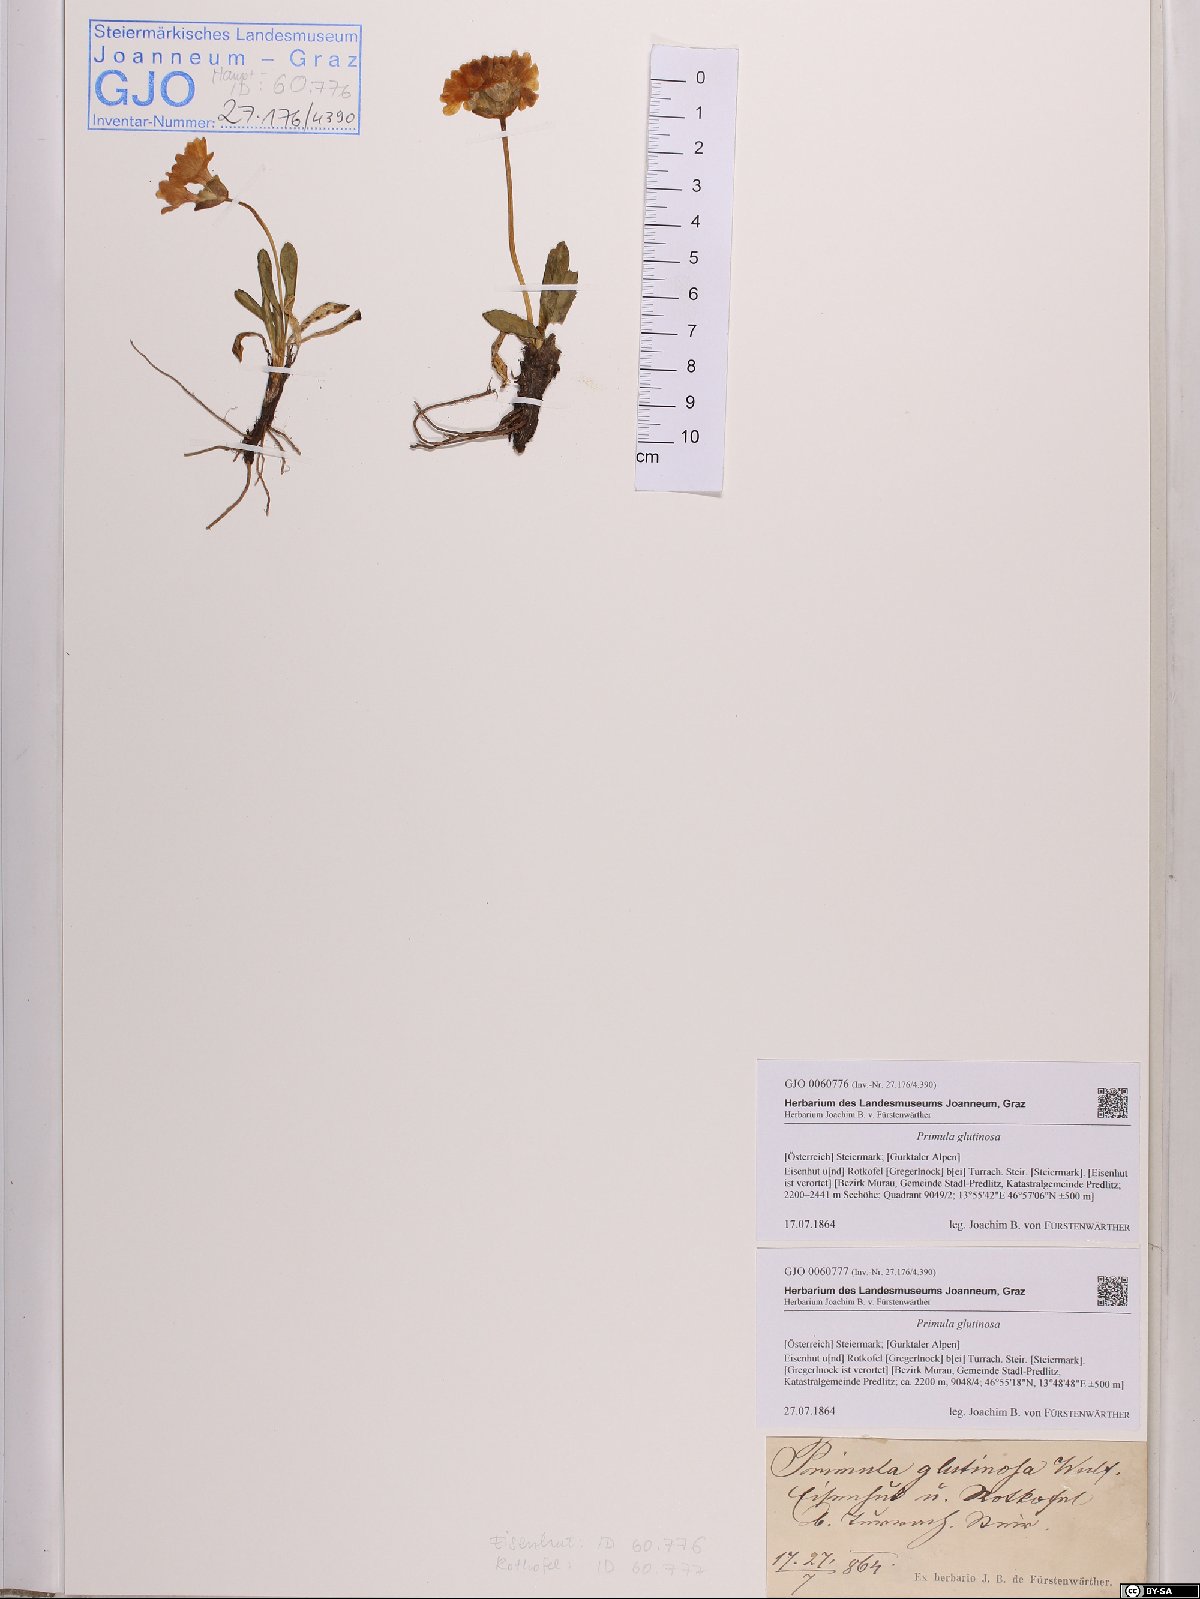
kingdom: Plantae
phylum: Tracheophyta
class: Magnoliopsida
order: Ericales
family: Primulaceae
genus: Primula
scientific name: Primula glutinosa
